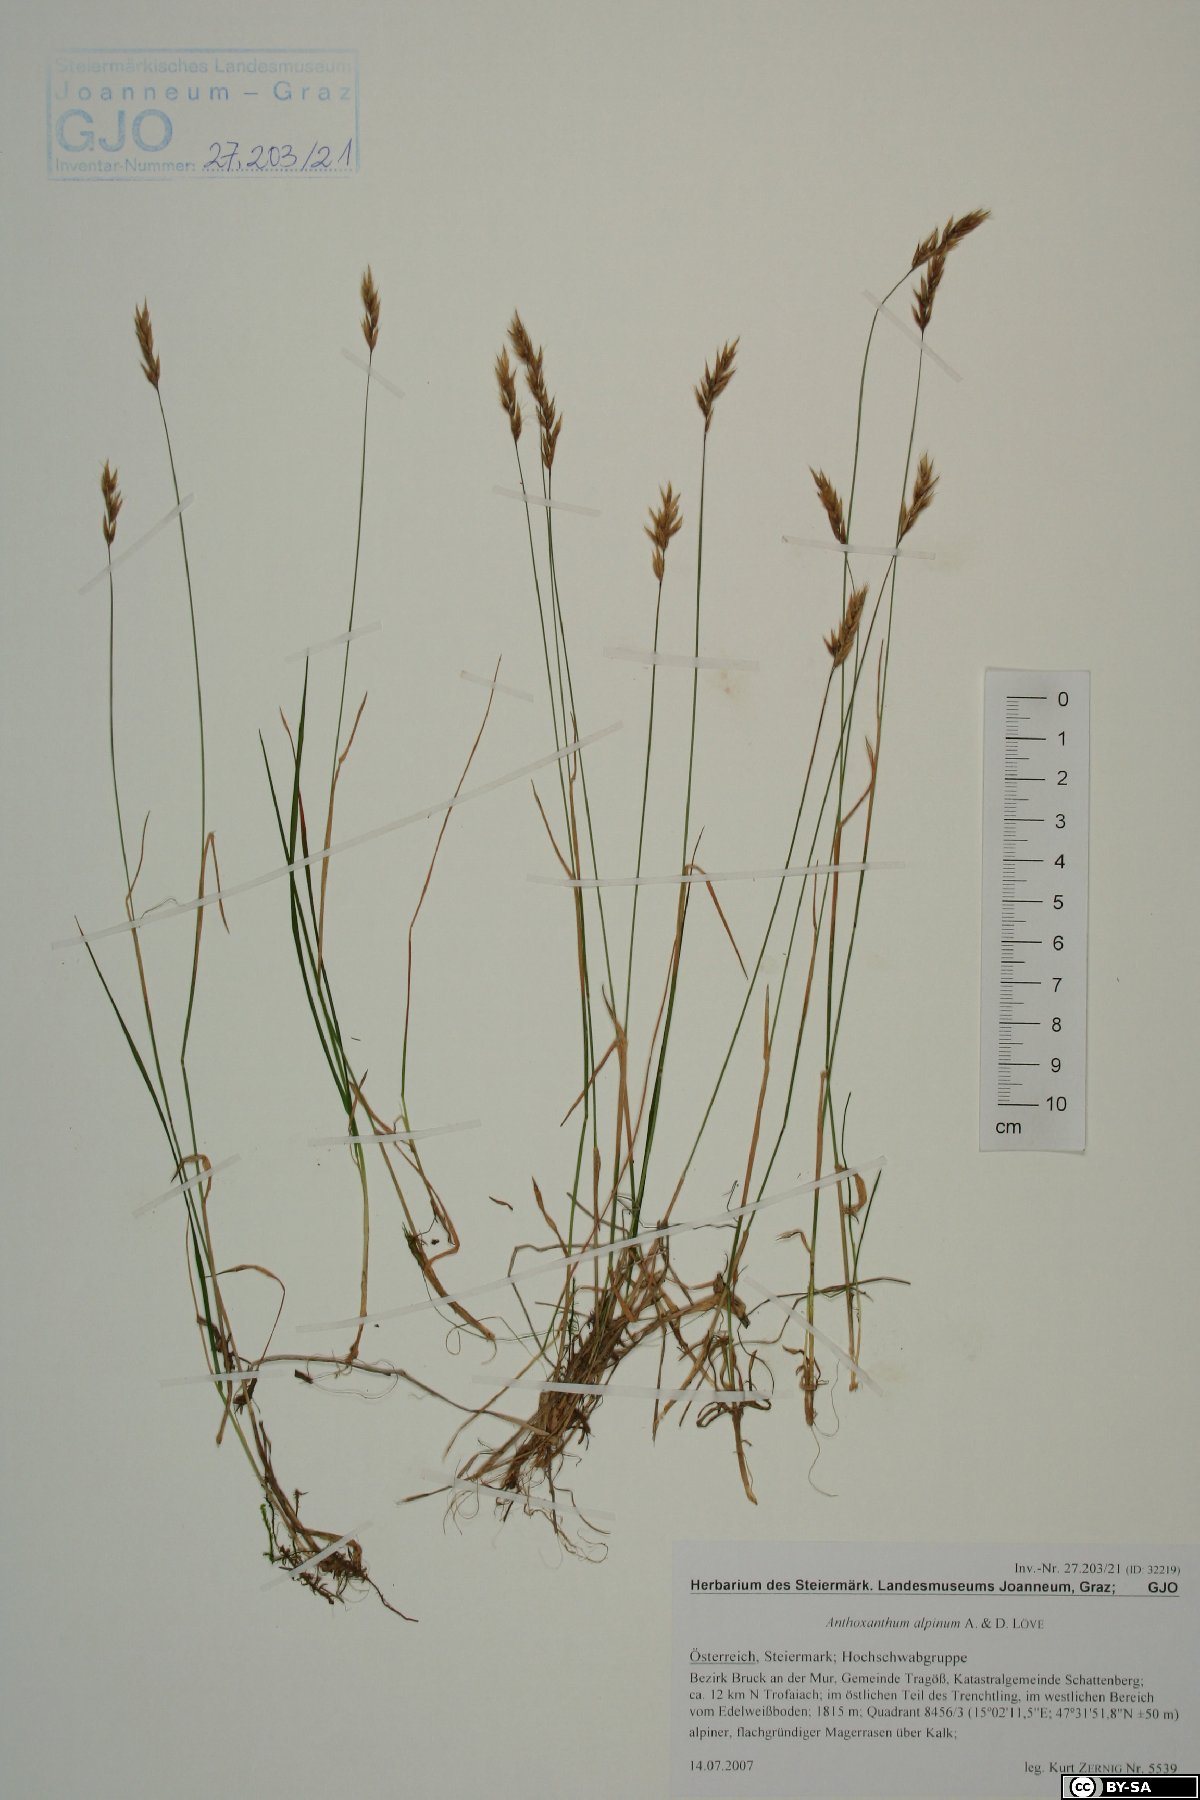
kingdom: Plantae
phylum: Tracheophyta
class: Liliopsida
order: Poales
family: Poaceae
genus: Anthoxanthum
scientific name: Anthoxanthum nipponicum
